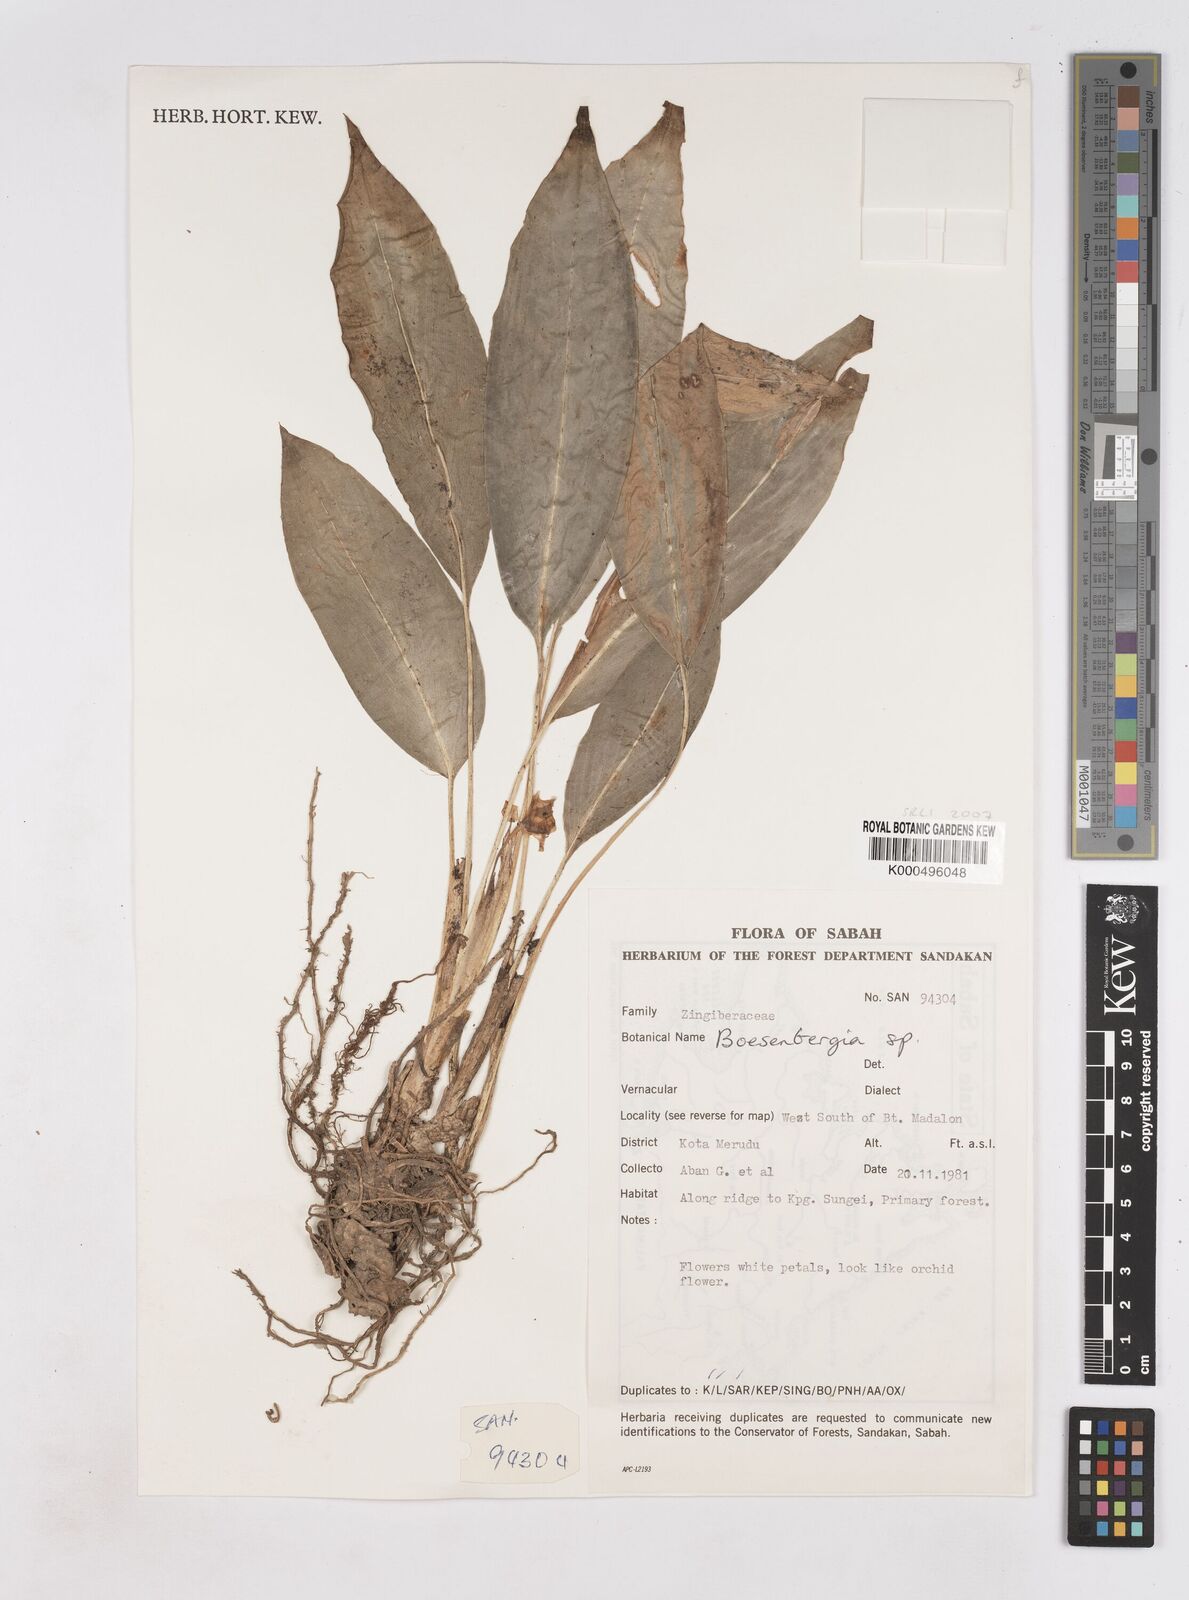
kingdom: Plantae
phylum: Tracheophyta
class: Liliopsida
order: Zingiberales
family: Zingiberaceae
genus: Boesenbergia
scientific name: Boesenbergia belalongensis
